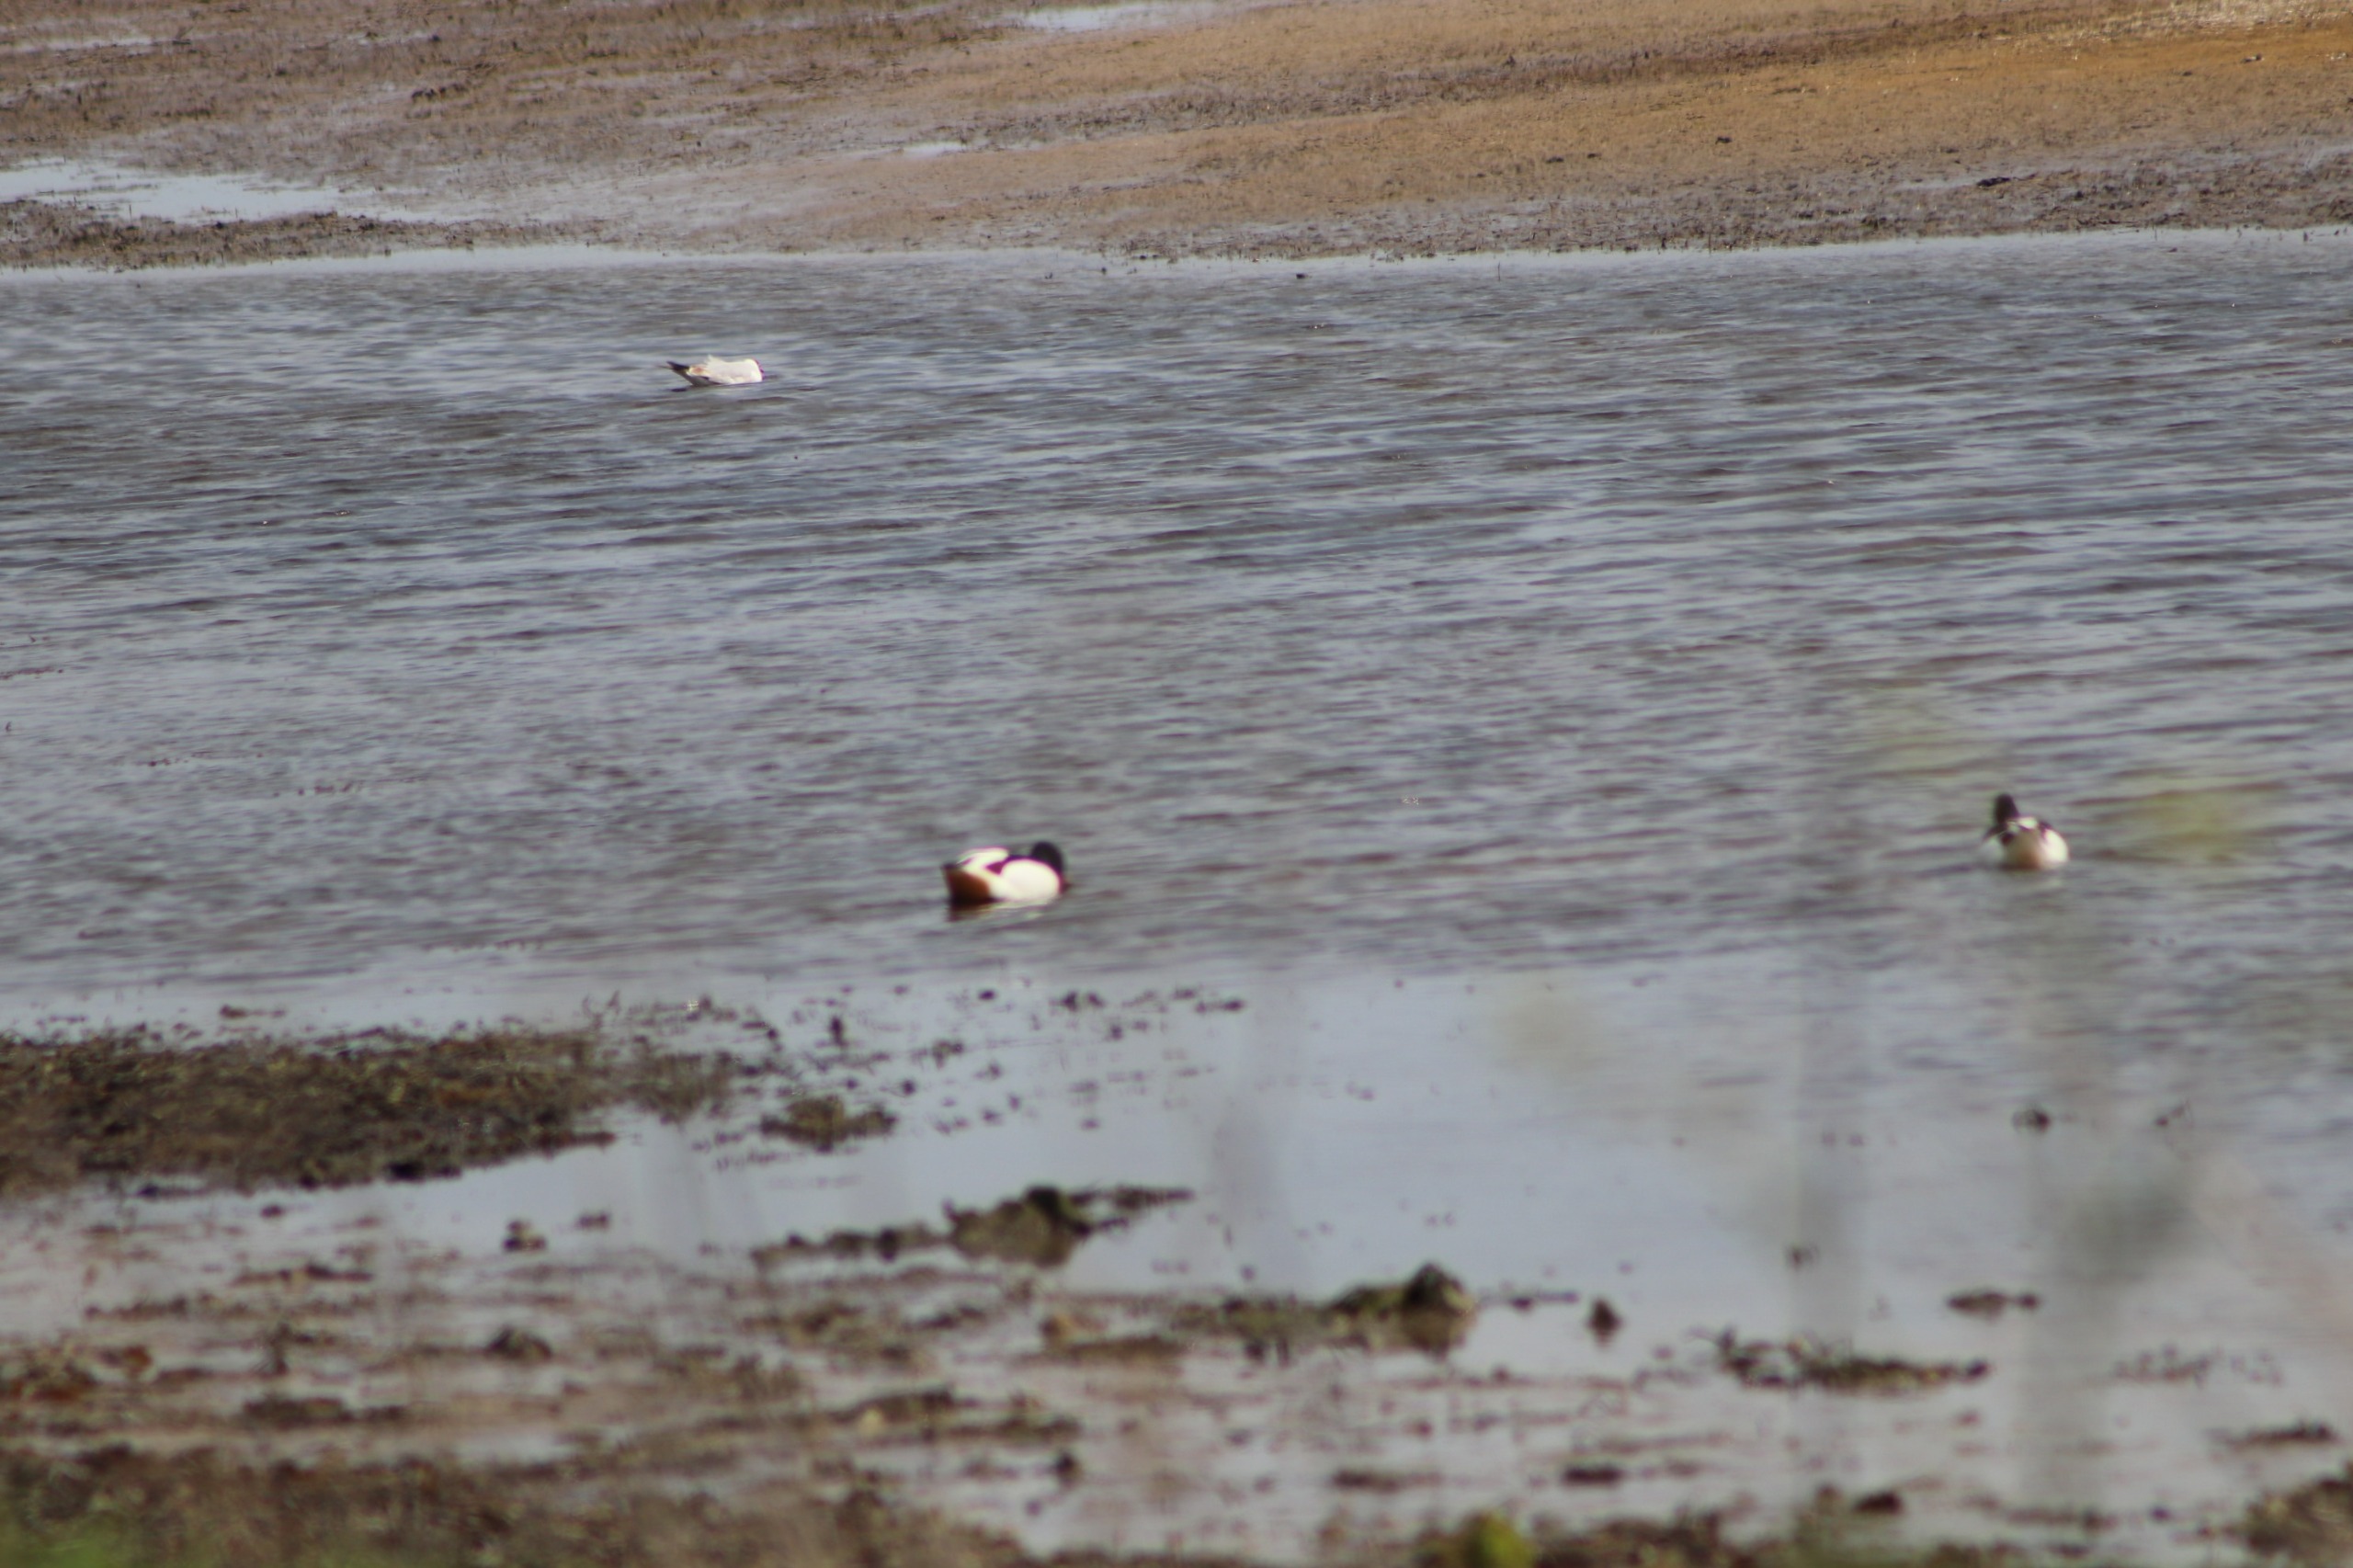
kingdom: Animalia
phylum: Chordata
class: Aves
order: Anseriformes
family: Anatidae
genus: Tadorna
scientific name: Tadorna tadorna
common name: Gravand
